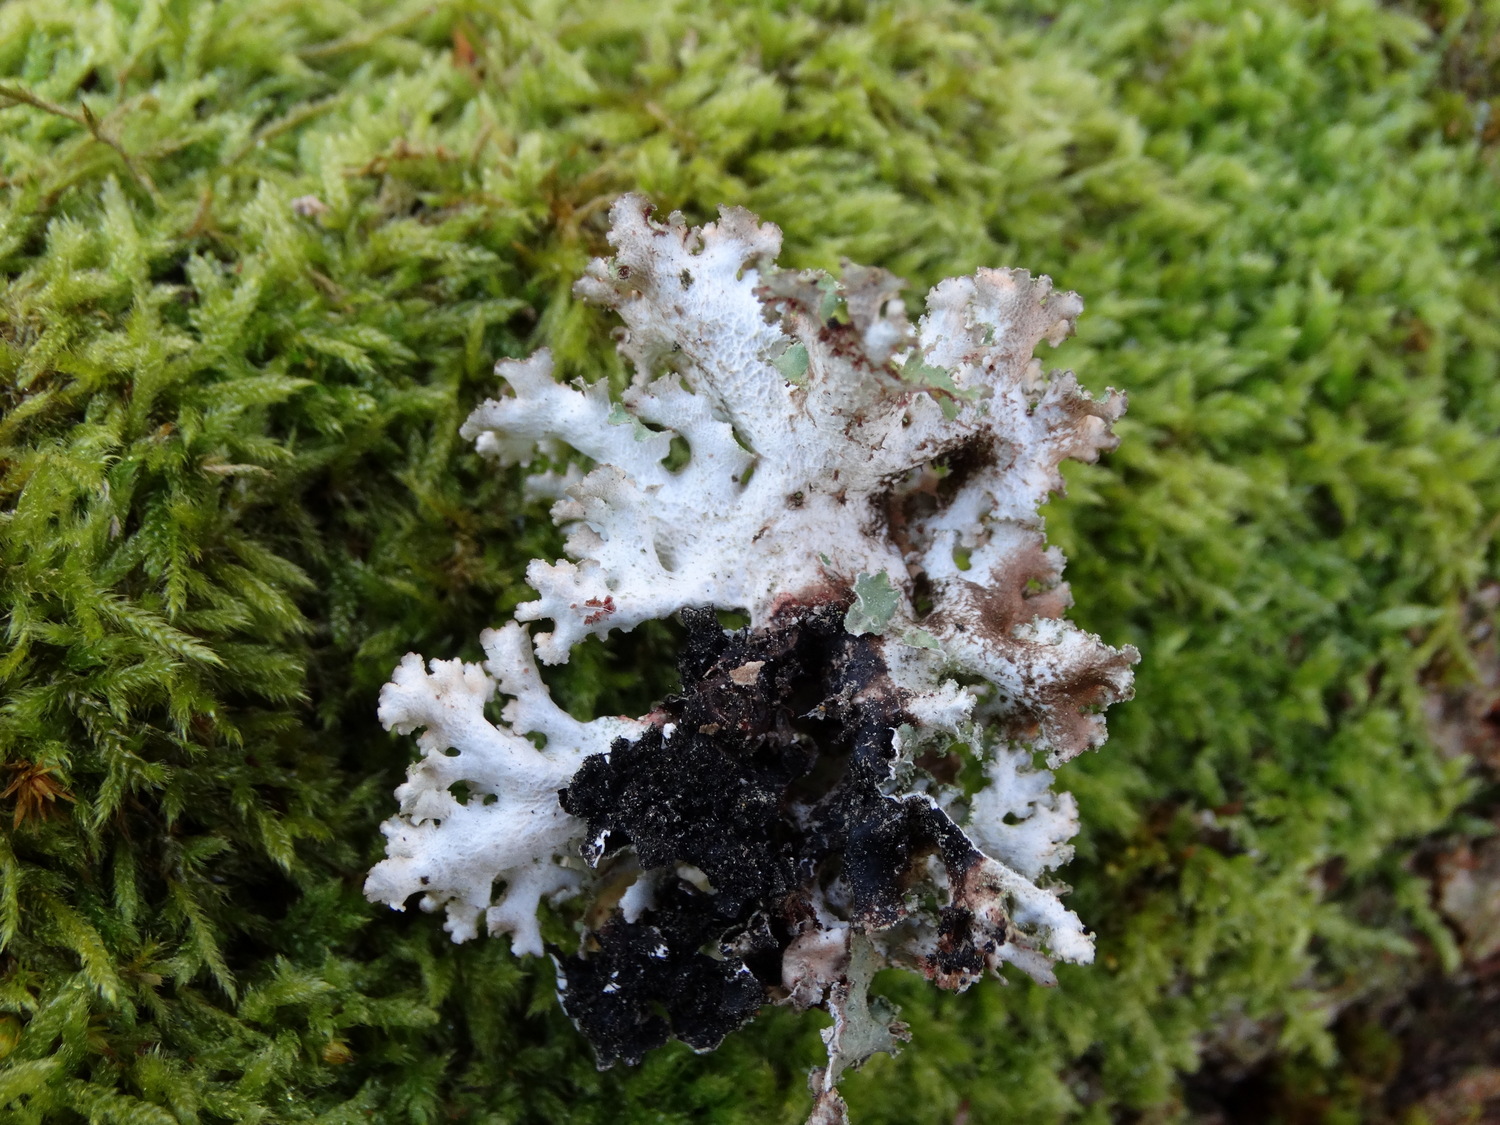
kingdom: Fungi
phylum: Ascomycota
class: Lecanoromycetes
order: Lecanorales
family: Parmeliaceae
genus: Platismatia
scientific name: Platismatia glauca
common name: blågrå papirlav
